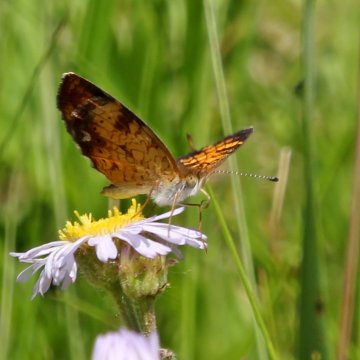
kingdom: Animalia
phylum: Arthropoda
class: Insecta
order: Lepidoptera
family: Nymphalidae
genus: Phyciodes
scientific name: Phyciodes tharos
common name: Pearl Crescent
